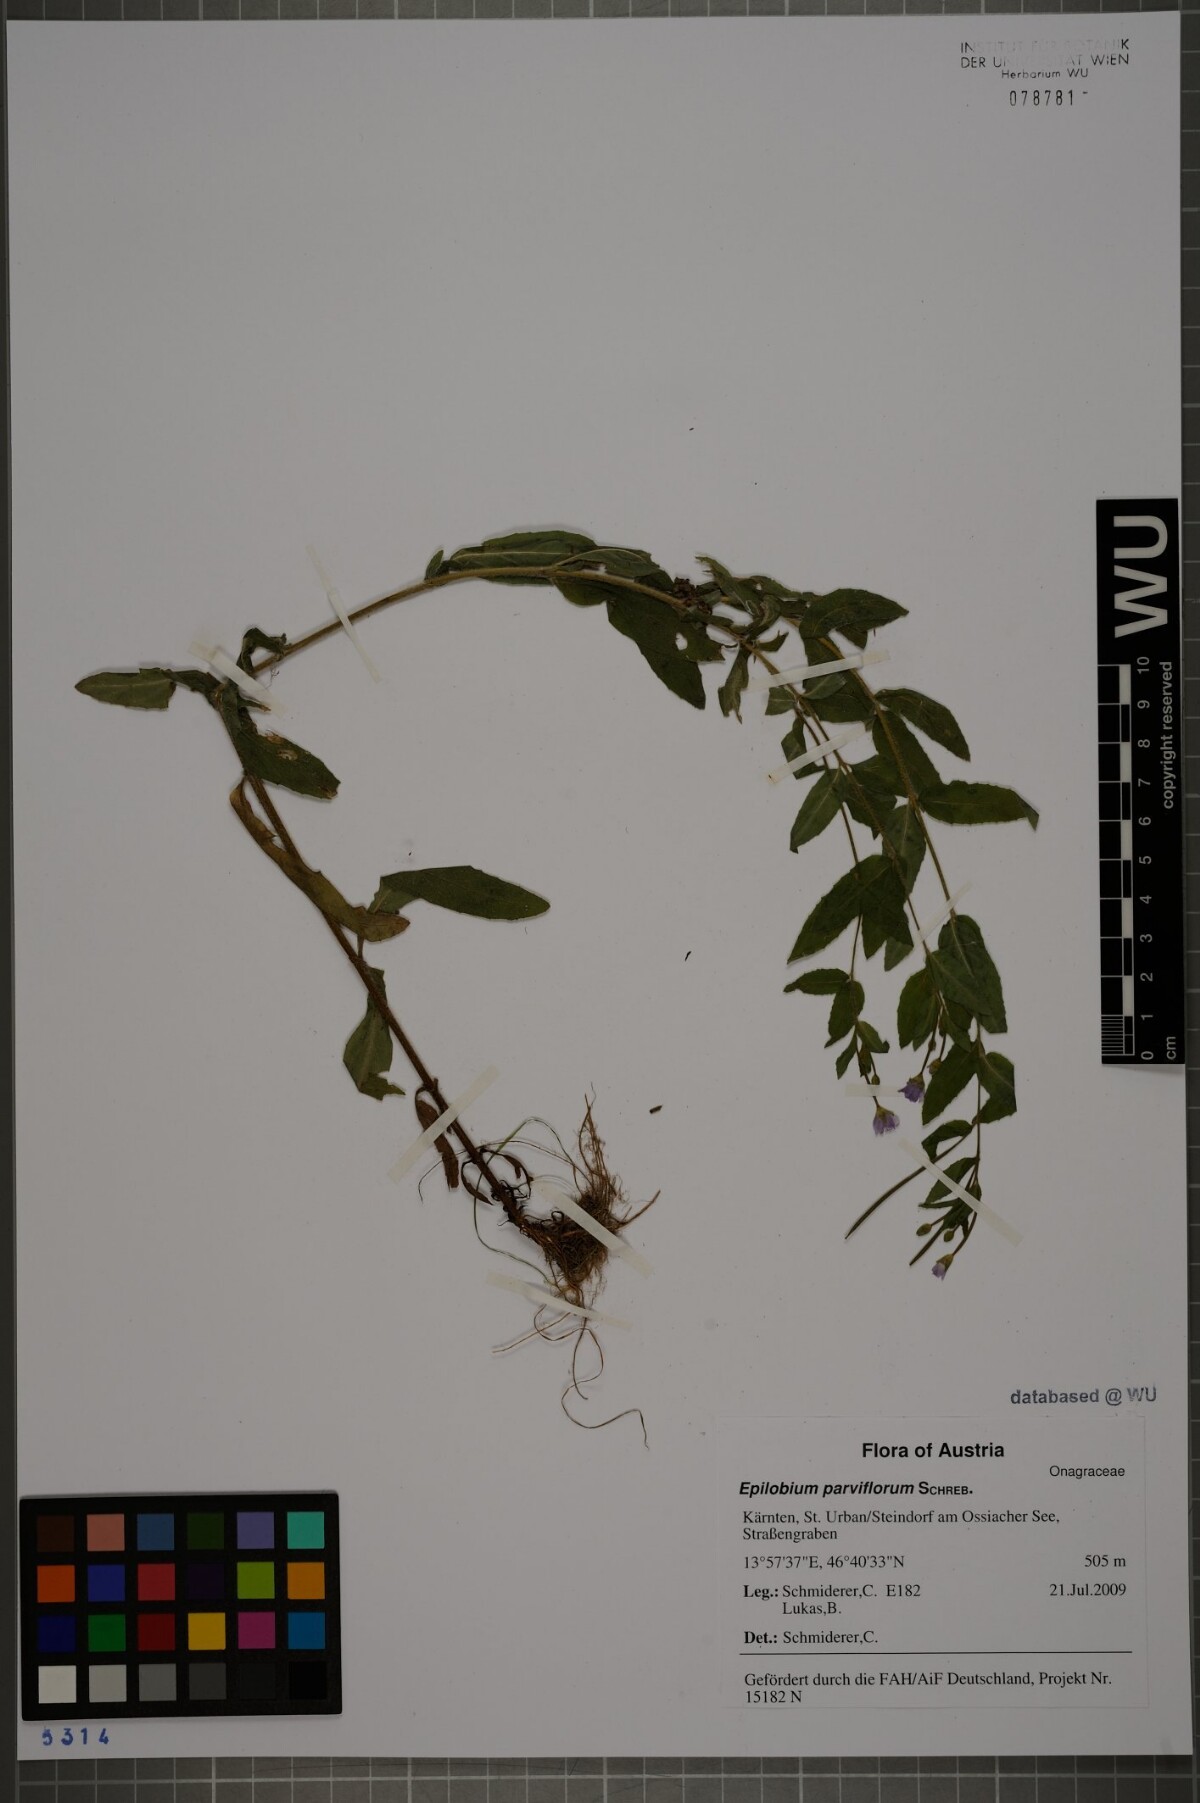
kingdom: Plantae
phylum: Tracheophyta
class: Magnoliopsida
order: Myrtales
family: Onagraceae
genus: Epilobium
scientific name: Epilobium parviflorum
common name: Hoary willowherb
